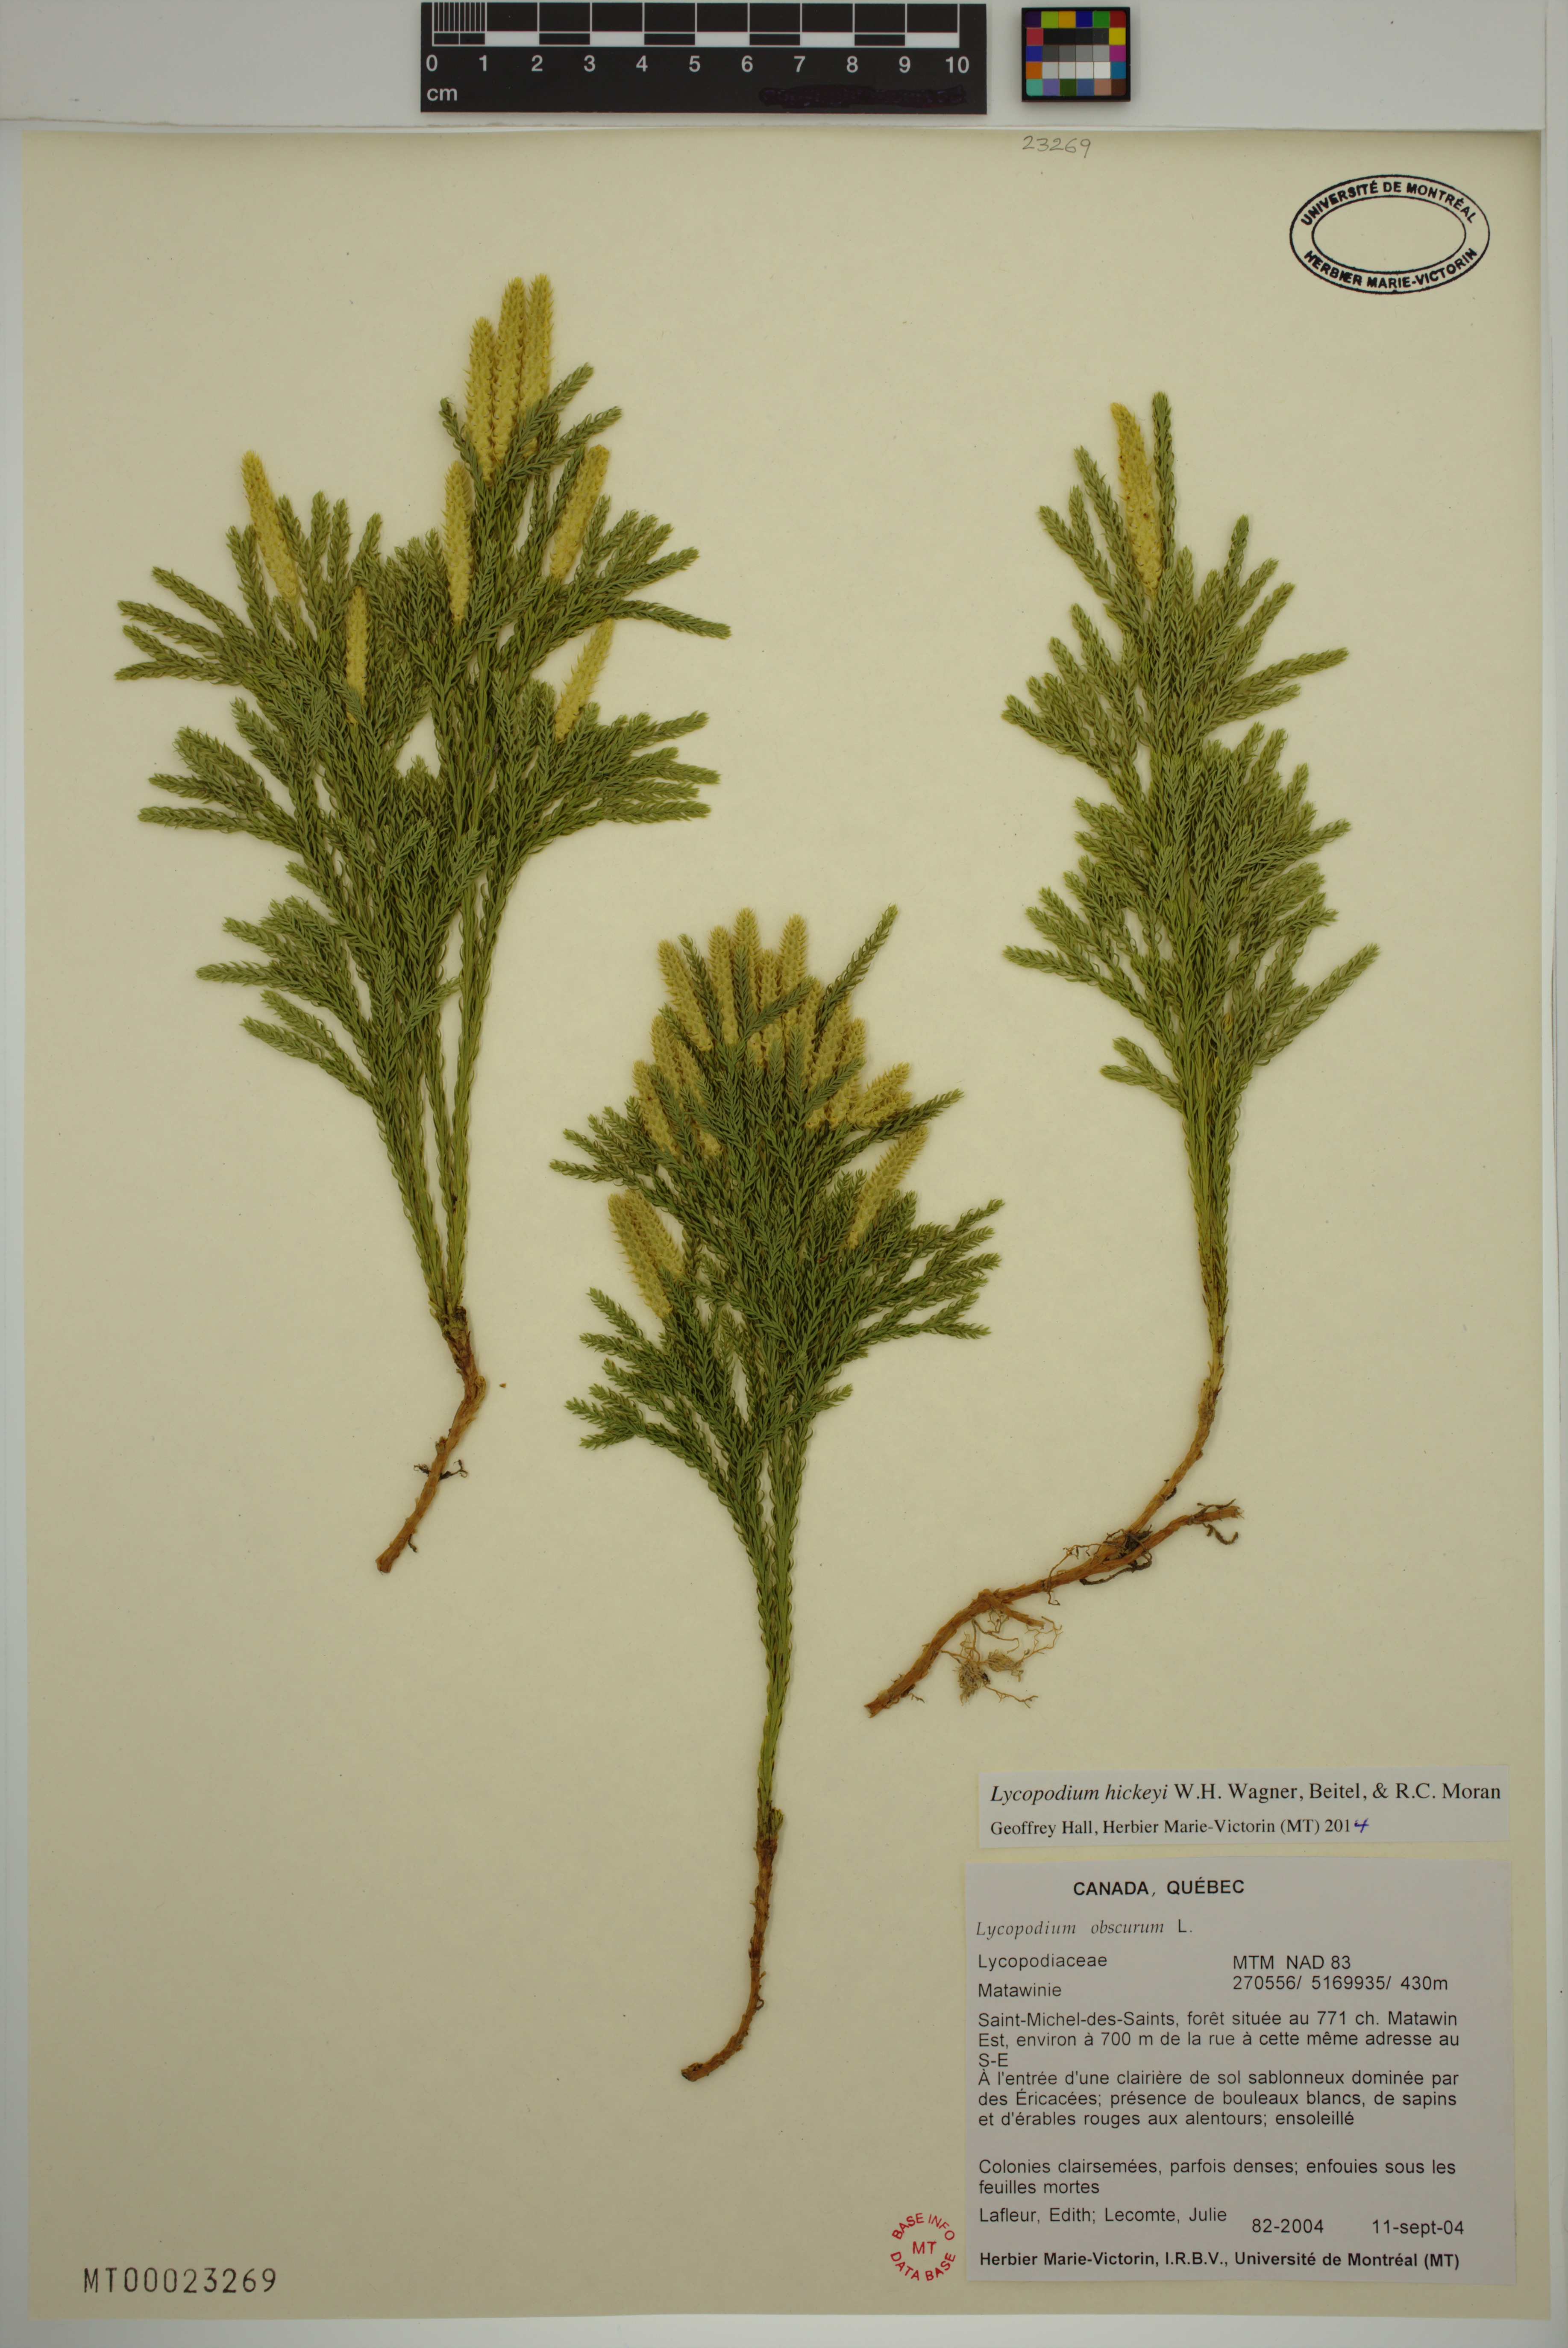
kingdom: Plantae
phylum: Tracheophyta
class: Lycopodiopsida
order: Lycopodiales
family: Lycopodiaceae
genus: Dendrolycopodium
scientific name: Dendrolycopodium hickeyi
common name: Hickey's clubmoss
